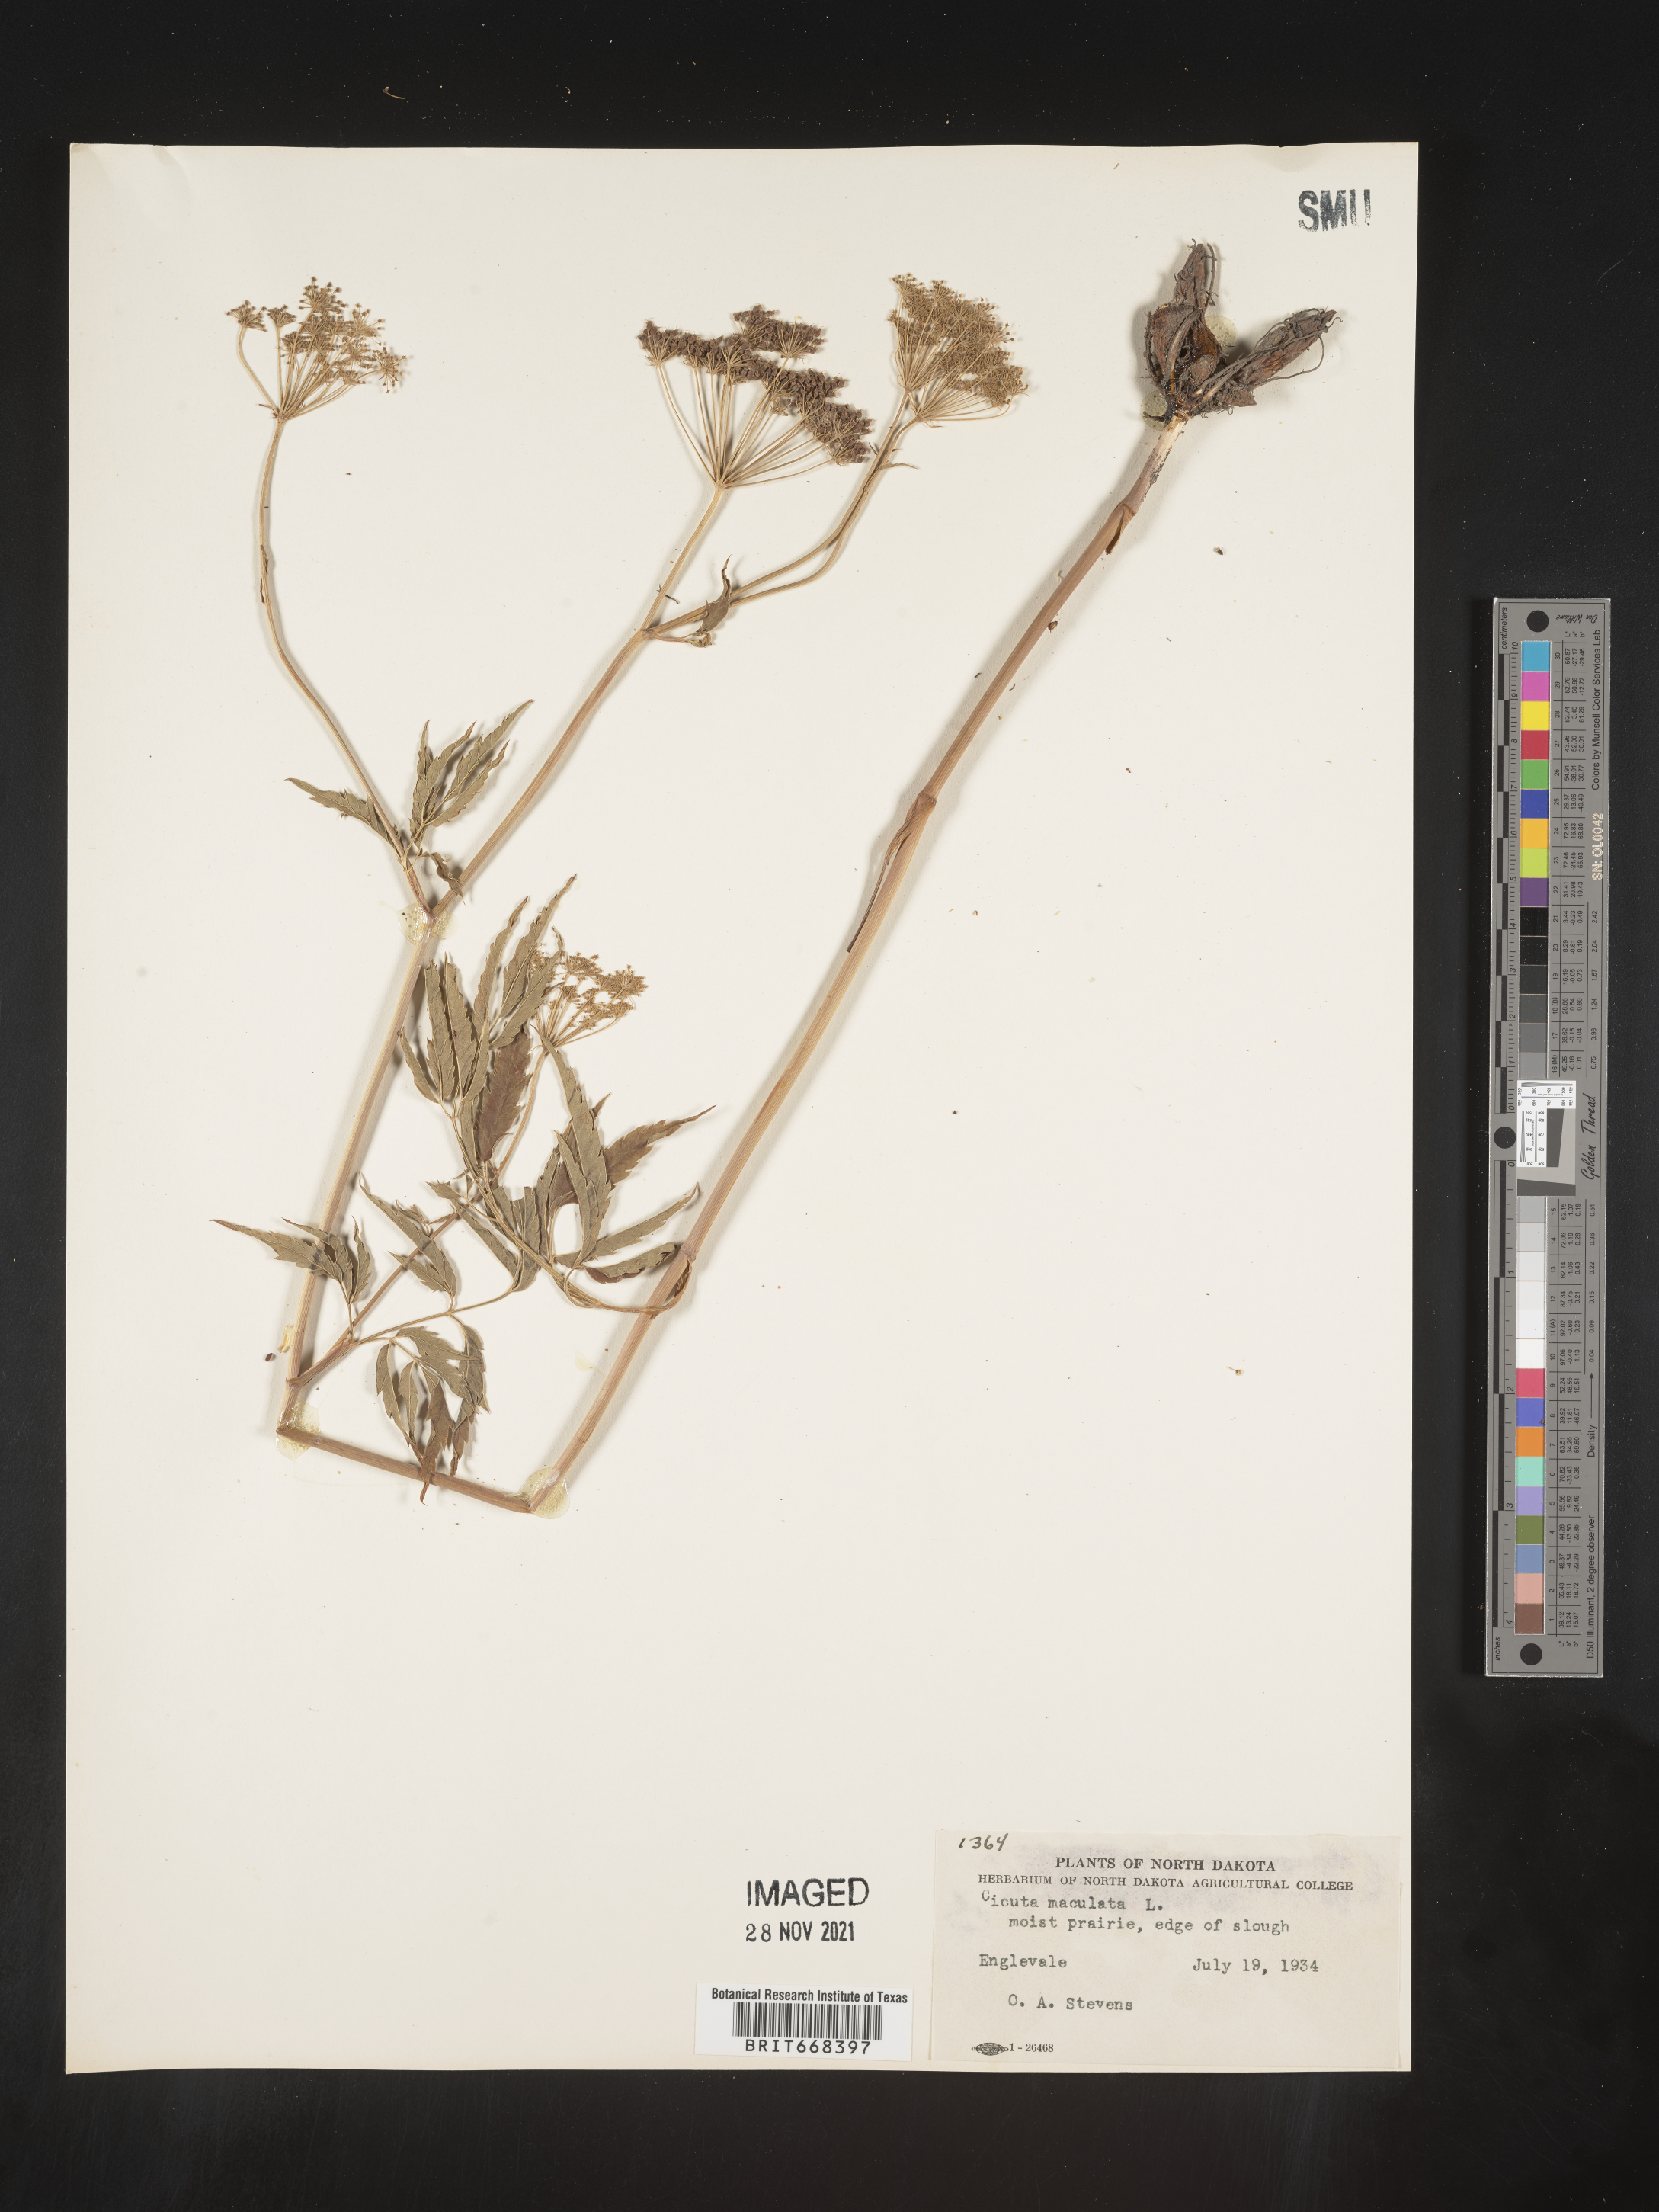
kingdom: Plantae
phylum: Tracheophyta
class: Magnoliopsida
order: Apiales
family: Apiaceae
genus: Cicuta
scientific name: Cicuta maculata
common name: Spotted cowbane
